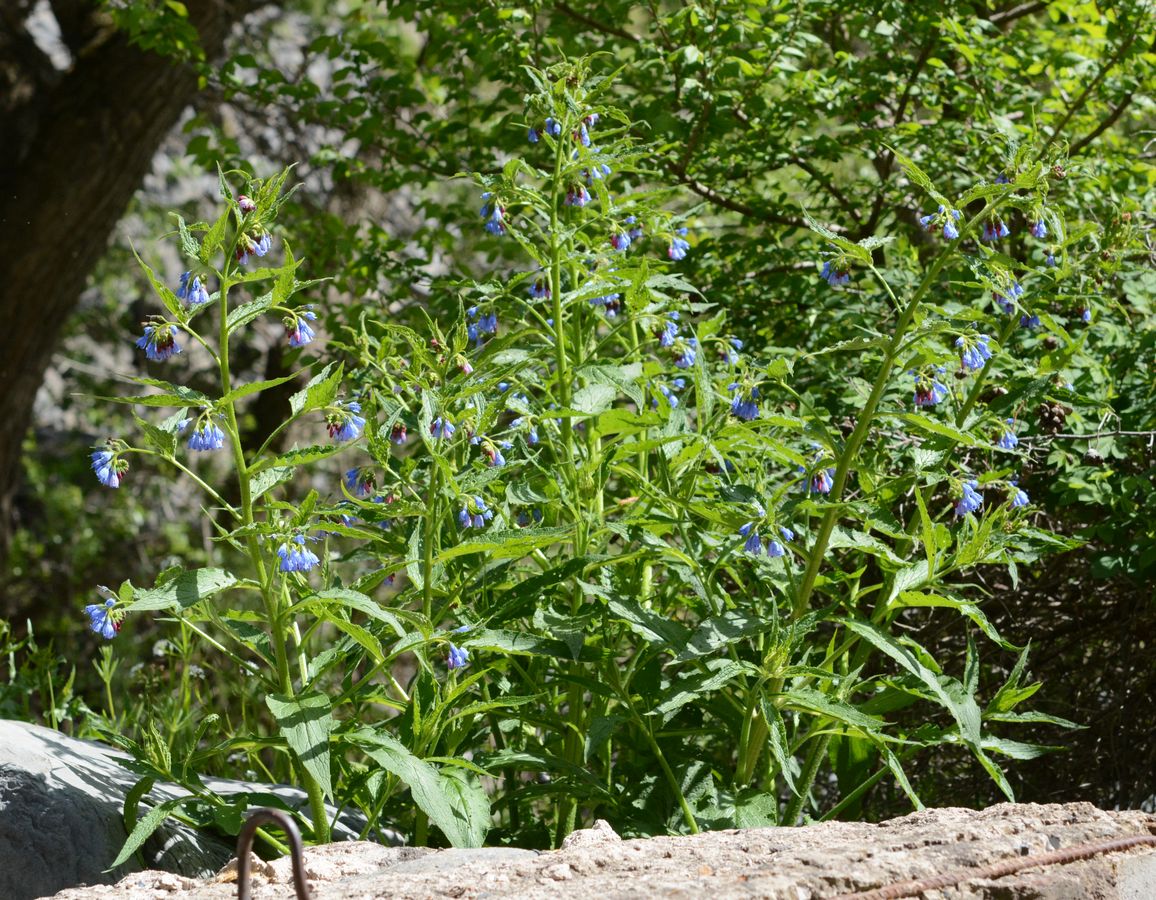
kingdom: Plantae
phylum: Tracheophyta
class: Magnoliopsida
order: Boraginales
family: Boraginaceae
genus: Symphytum
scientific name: Symphytum asperum
